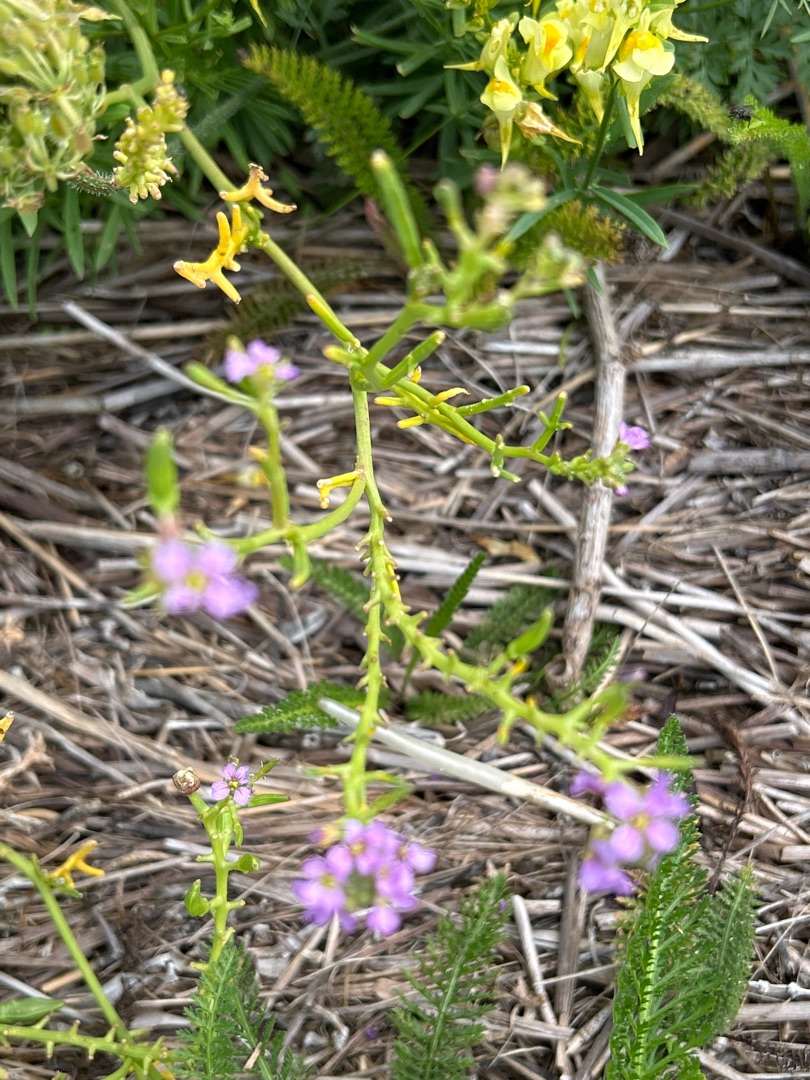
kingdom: Plantae
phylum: Tracheophyta
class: Magnoliopsida
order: Brassicales
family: Brassicaceae
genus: Cakile
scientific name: Cakile maritima
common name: Strandsennep
